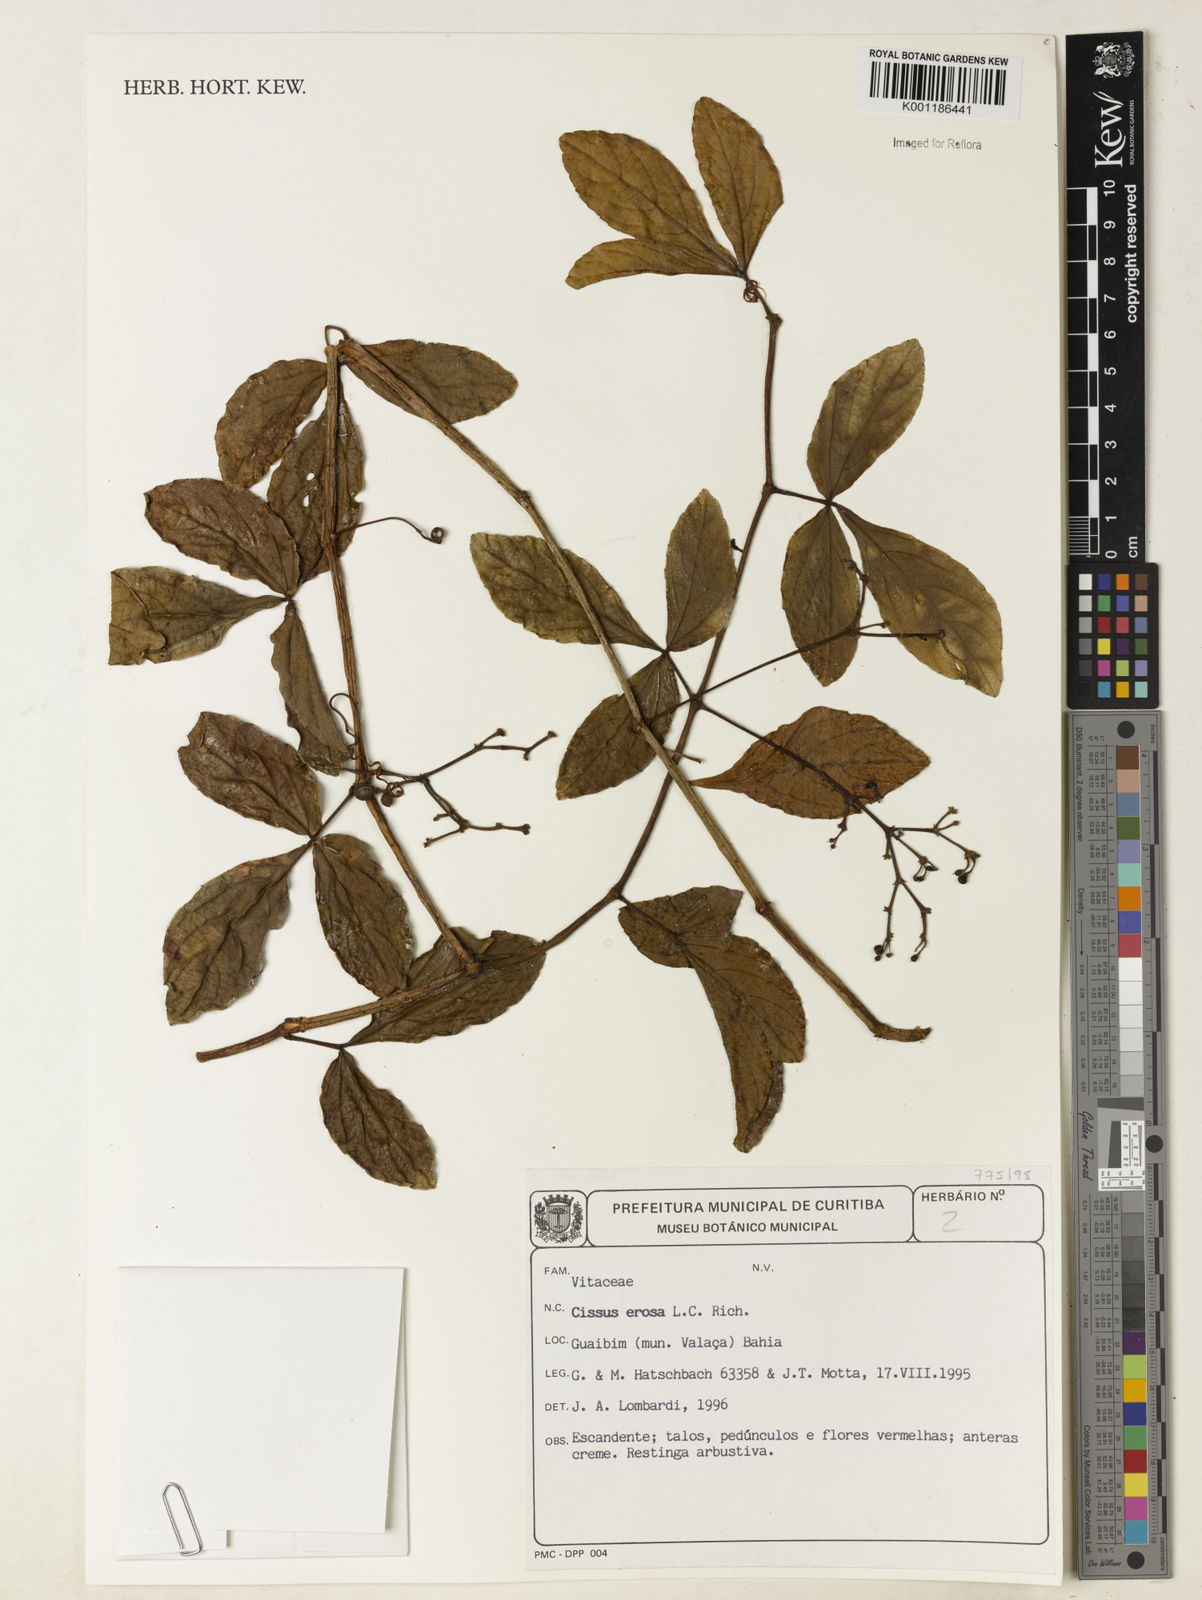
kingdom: Plantae
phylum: Tracheophyta
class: Magnoliopsida
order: Vitales
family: Vitaceae
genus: Cissus
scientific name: Cissus erosa
